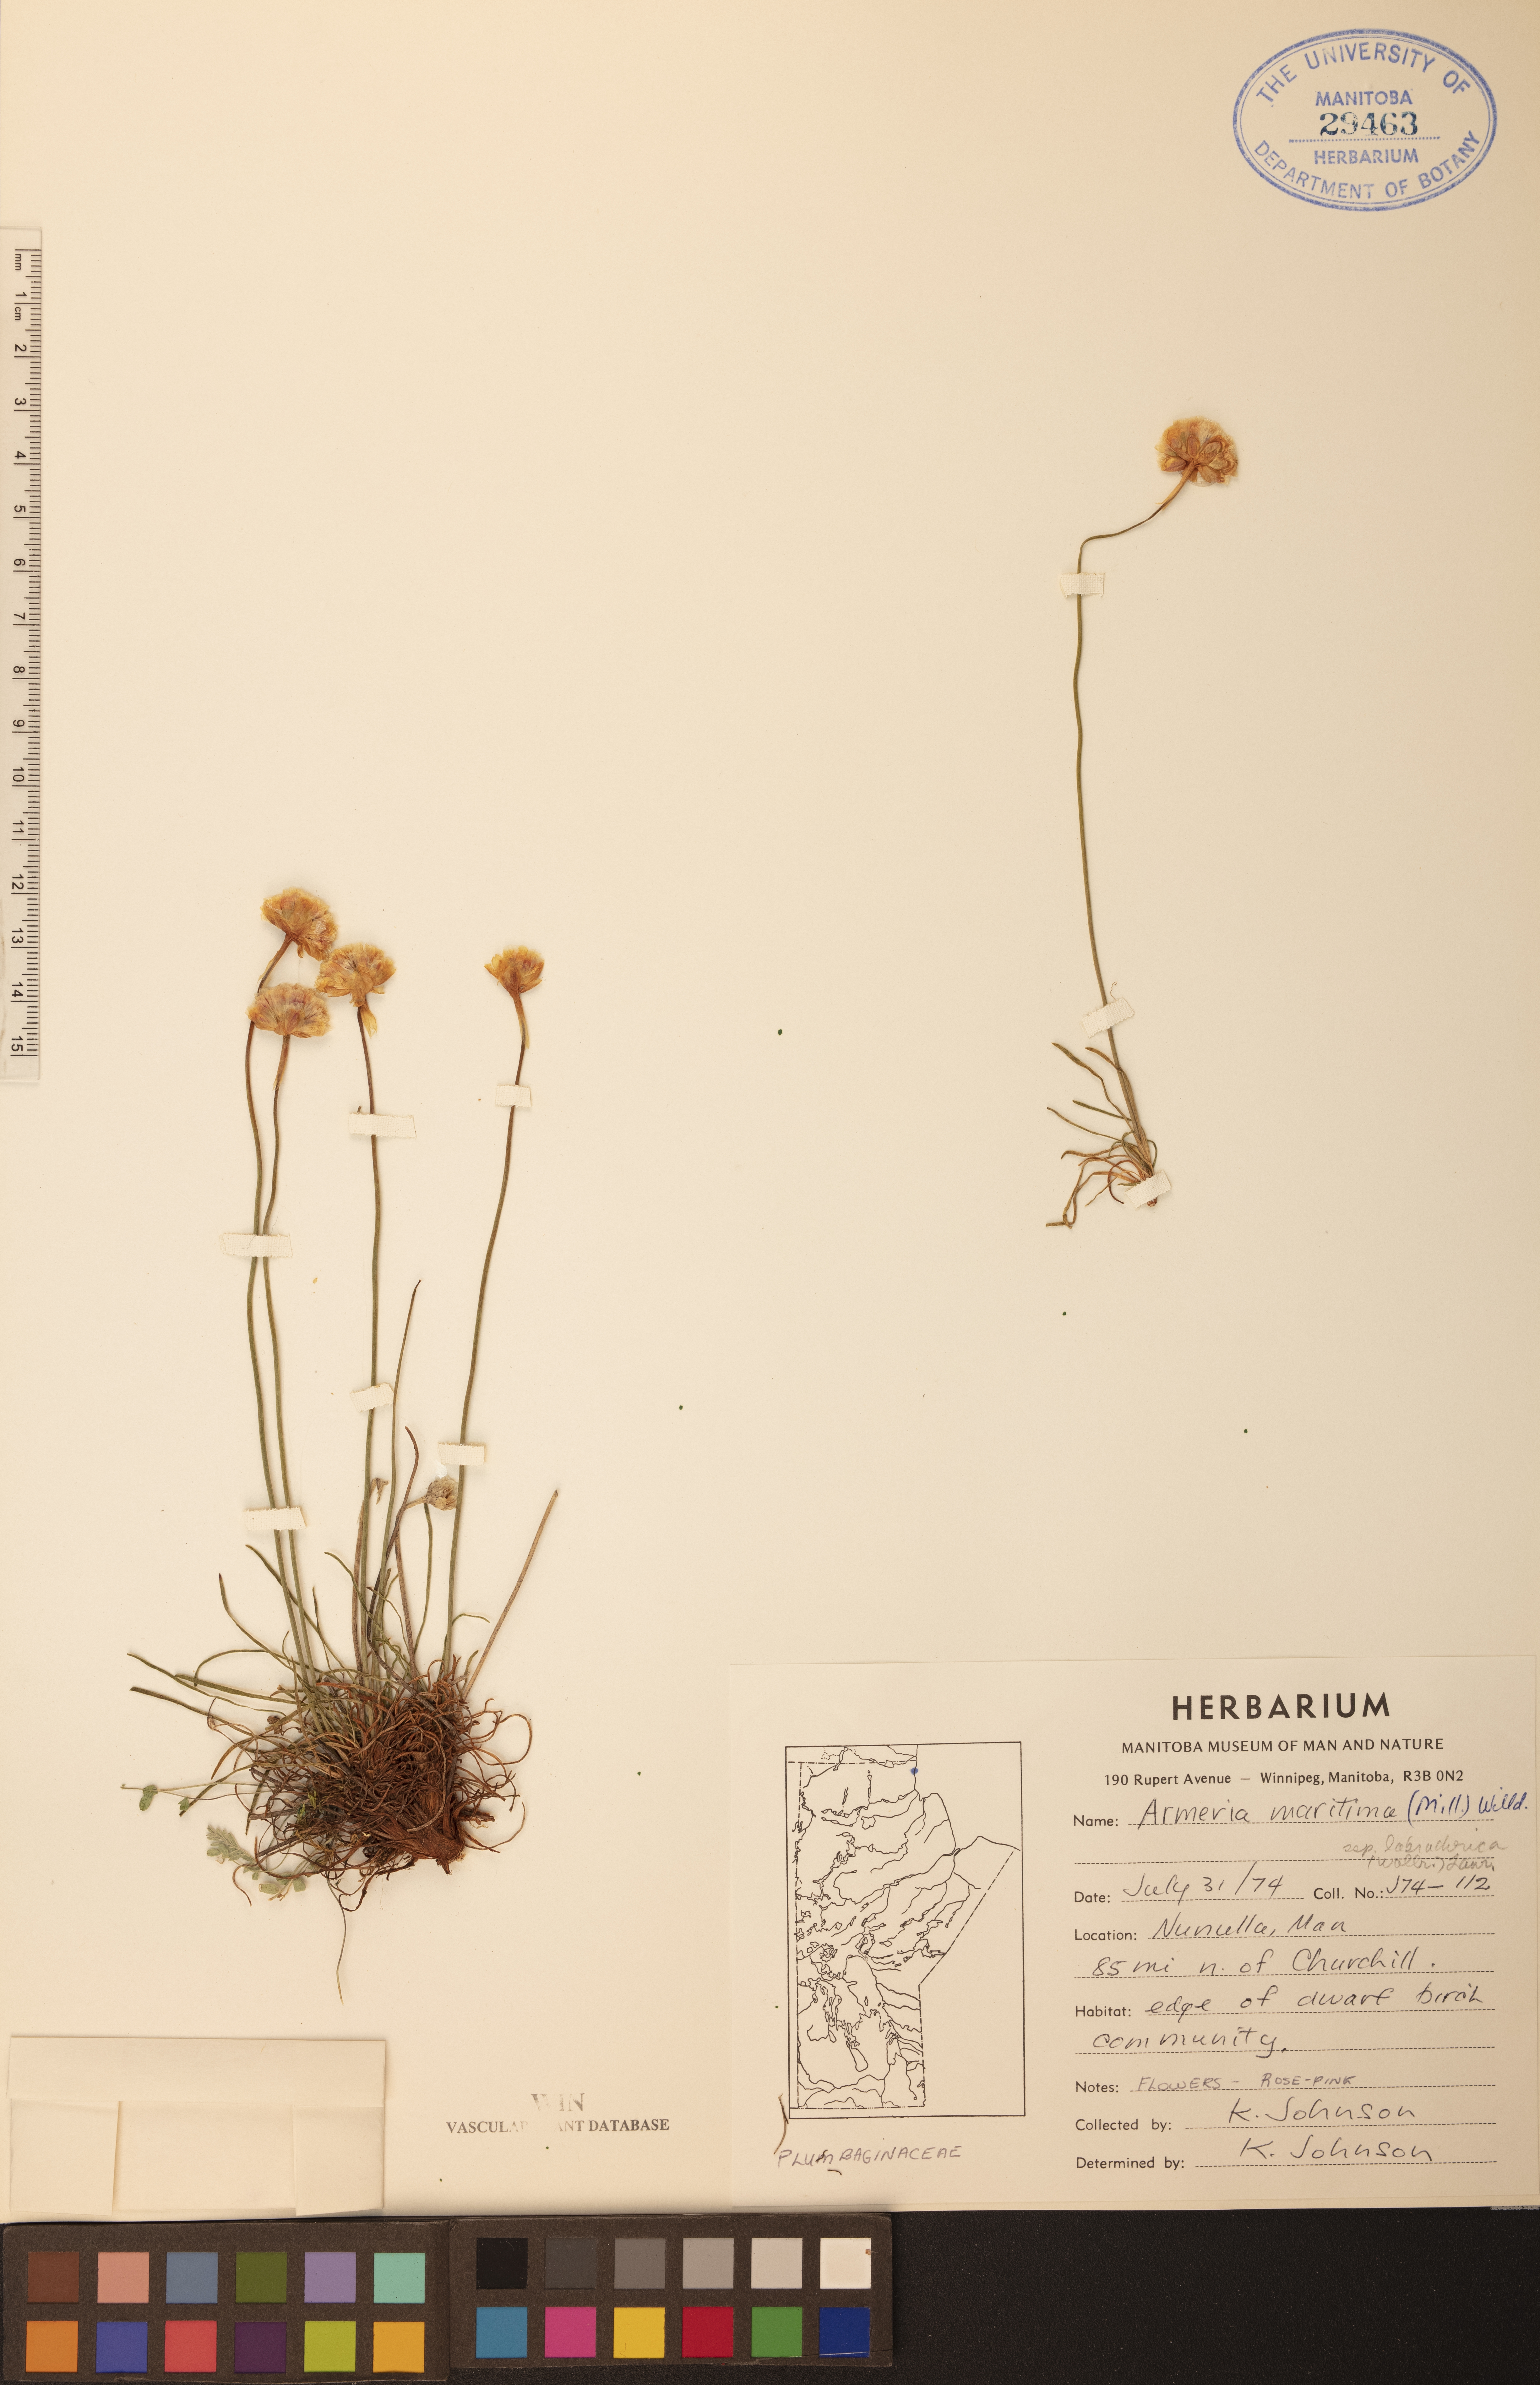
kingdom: Plantae
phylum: Tracheophyta
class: Magnoliopsida
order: Caryophyllales
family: Plumbaginaceae
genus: Armeria
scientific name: Armeria maritima
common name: Thrift
